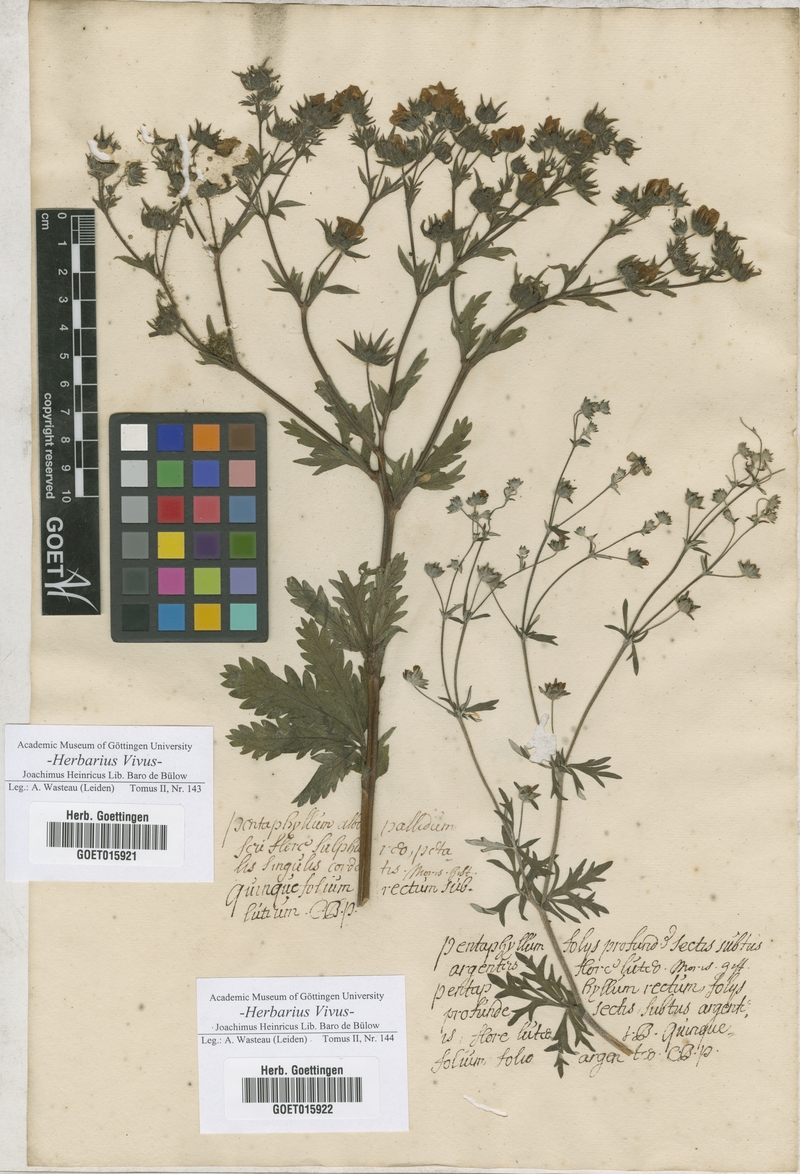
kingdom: Plantae
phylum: Tracheophyta
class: Magnoliopsida
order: Rosales
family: Rosaceae
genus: Potentilla
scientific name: Potentilla recta
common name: Sulphur cinquefoil
